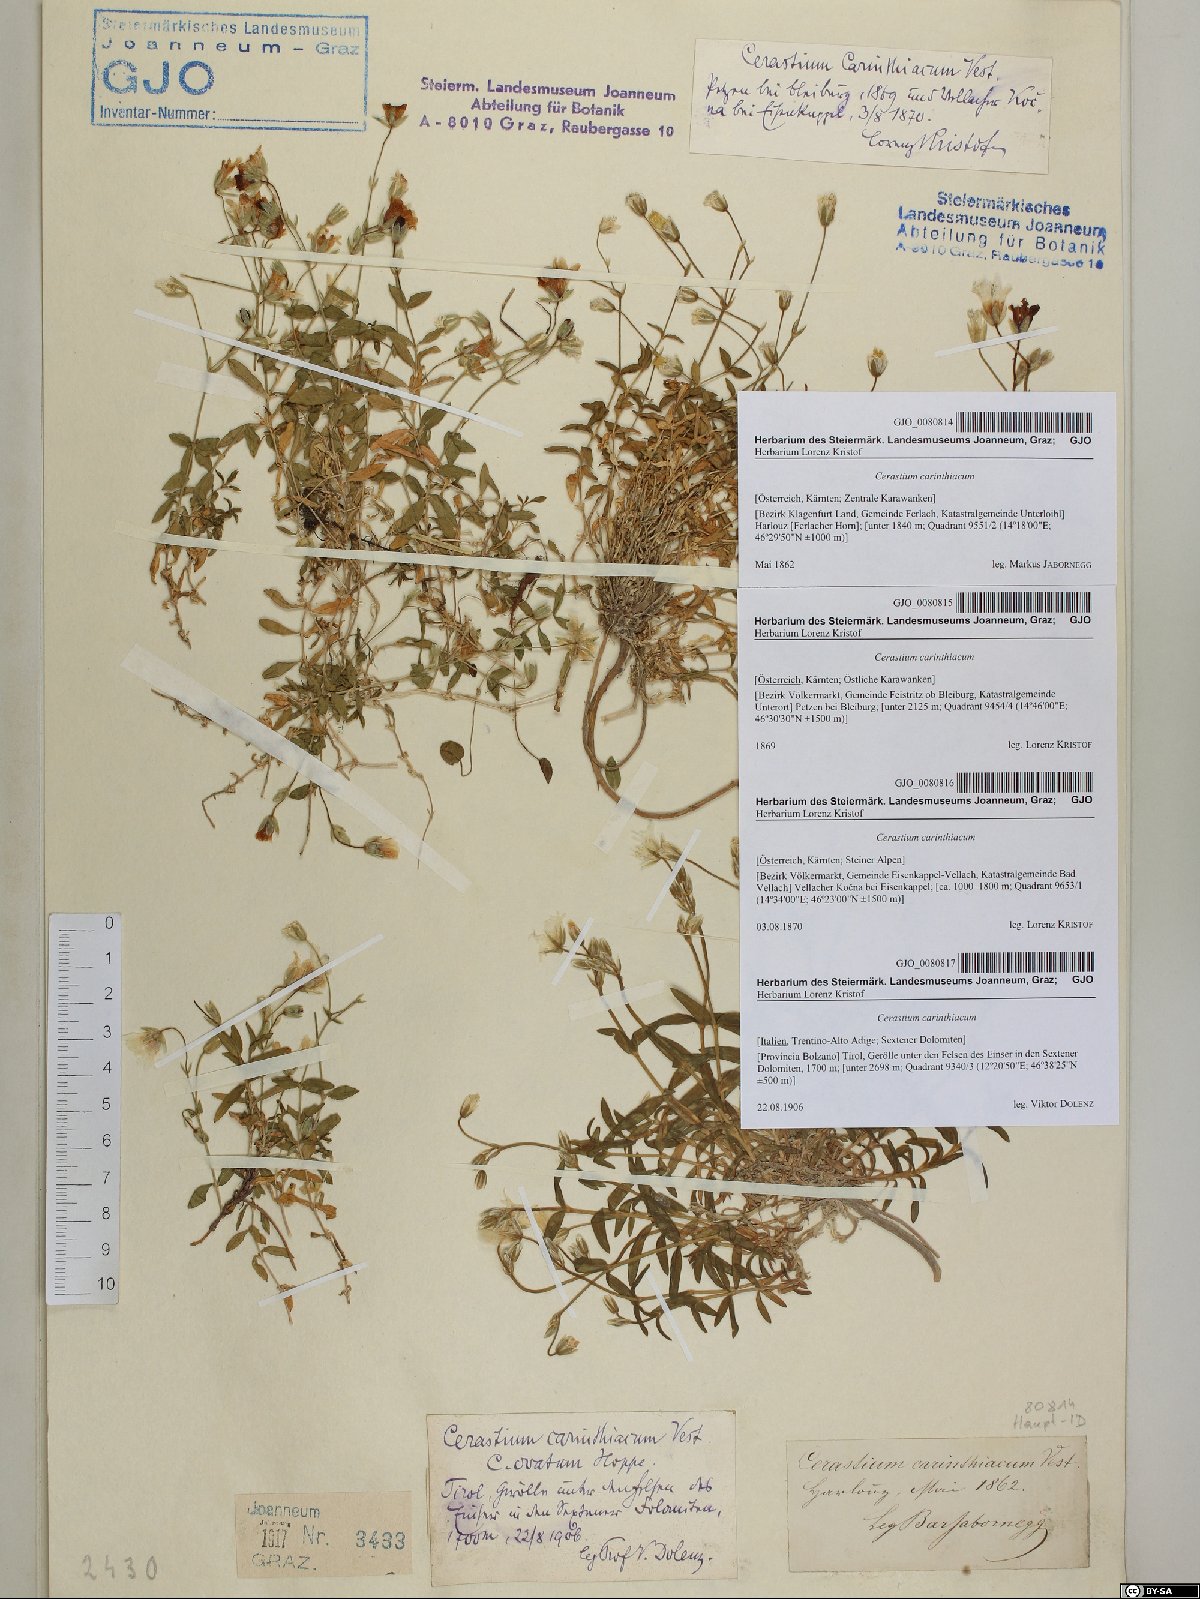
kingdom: Plantae
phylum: Tracheophyta
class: Magnoliopsida
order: Caryophyllales
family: Caryophyllaceae
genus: Cerastium
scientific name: Cerastium carinthiacum
